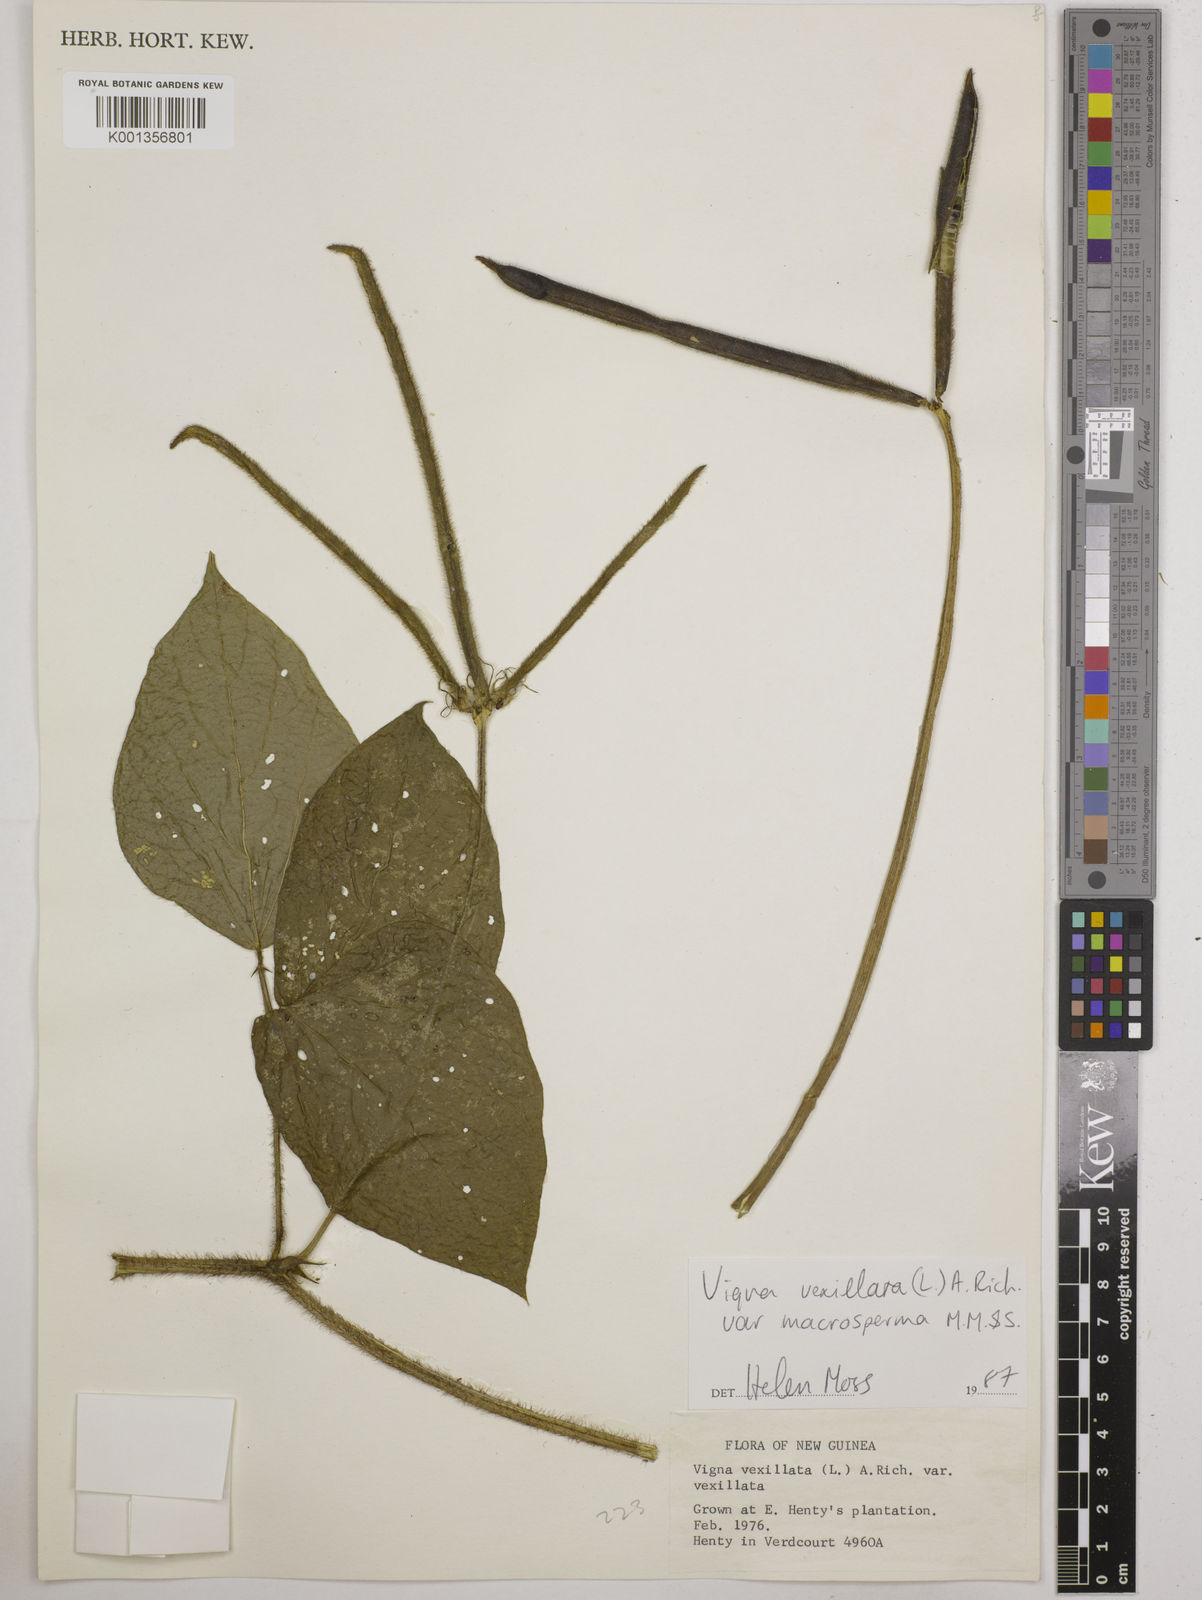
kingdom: Plantae
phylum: Tracheophyta
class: Magnoliopsida
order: Fabales
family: Fabaceae
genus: Vigna
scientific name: Vigna vexillata
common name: Zombi pea
